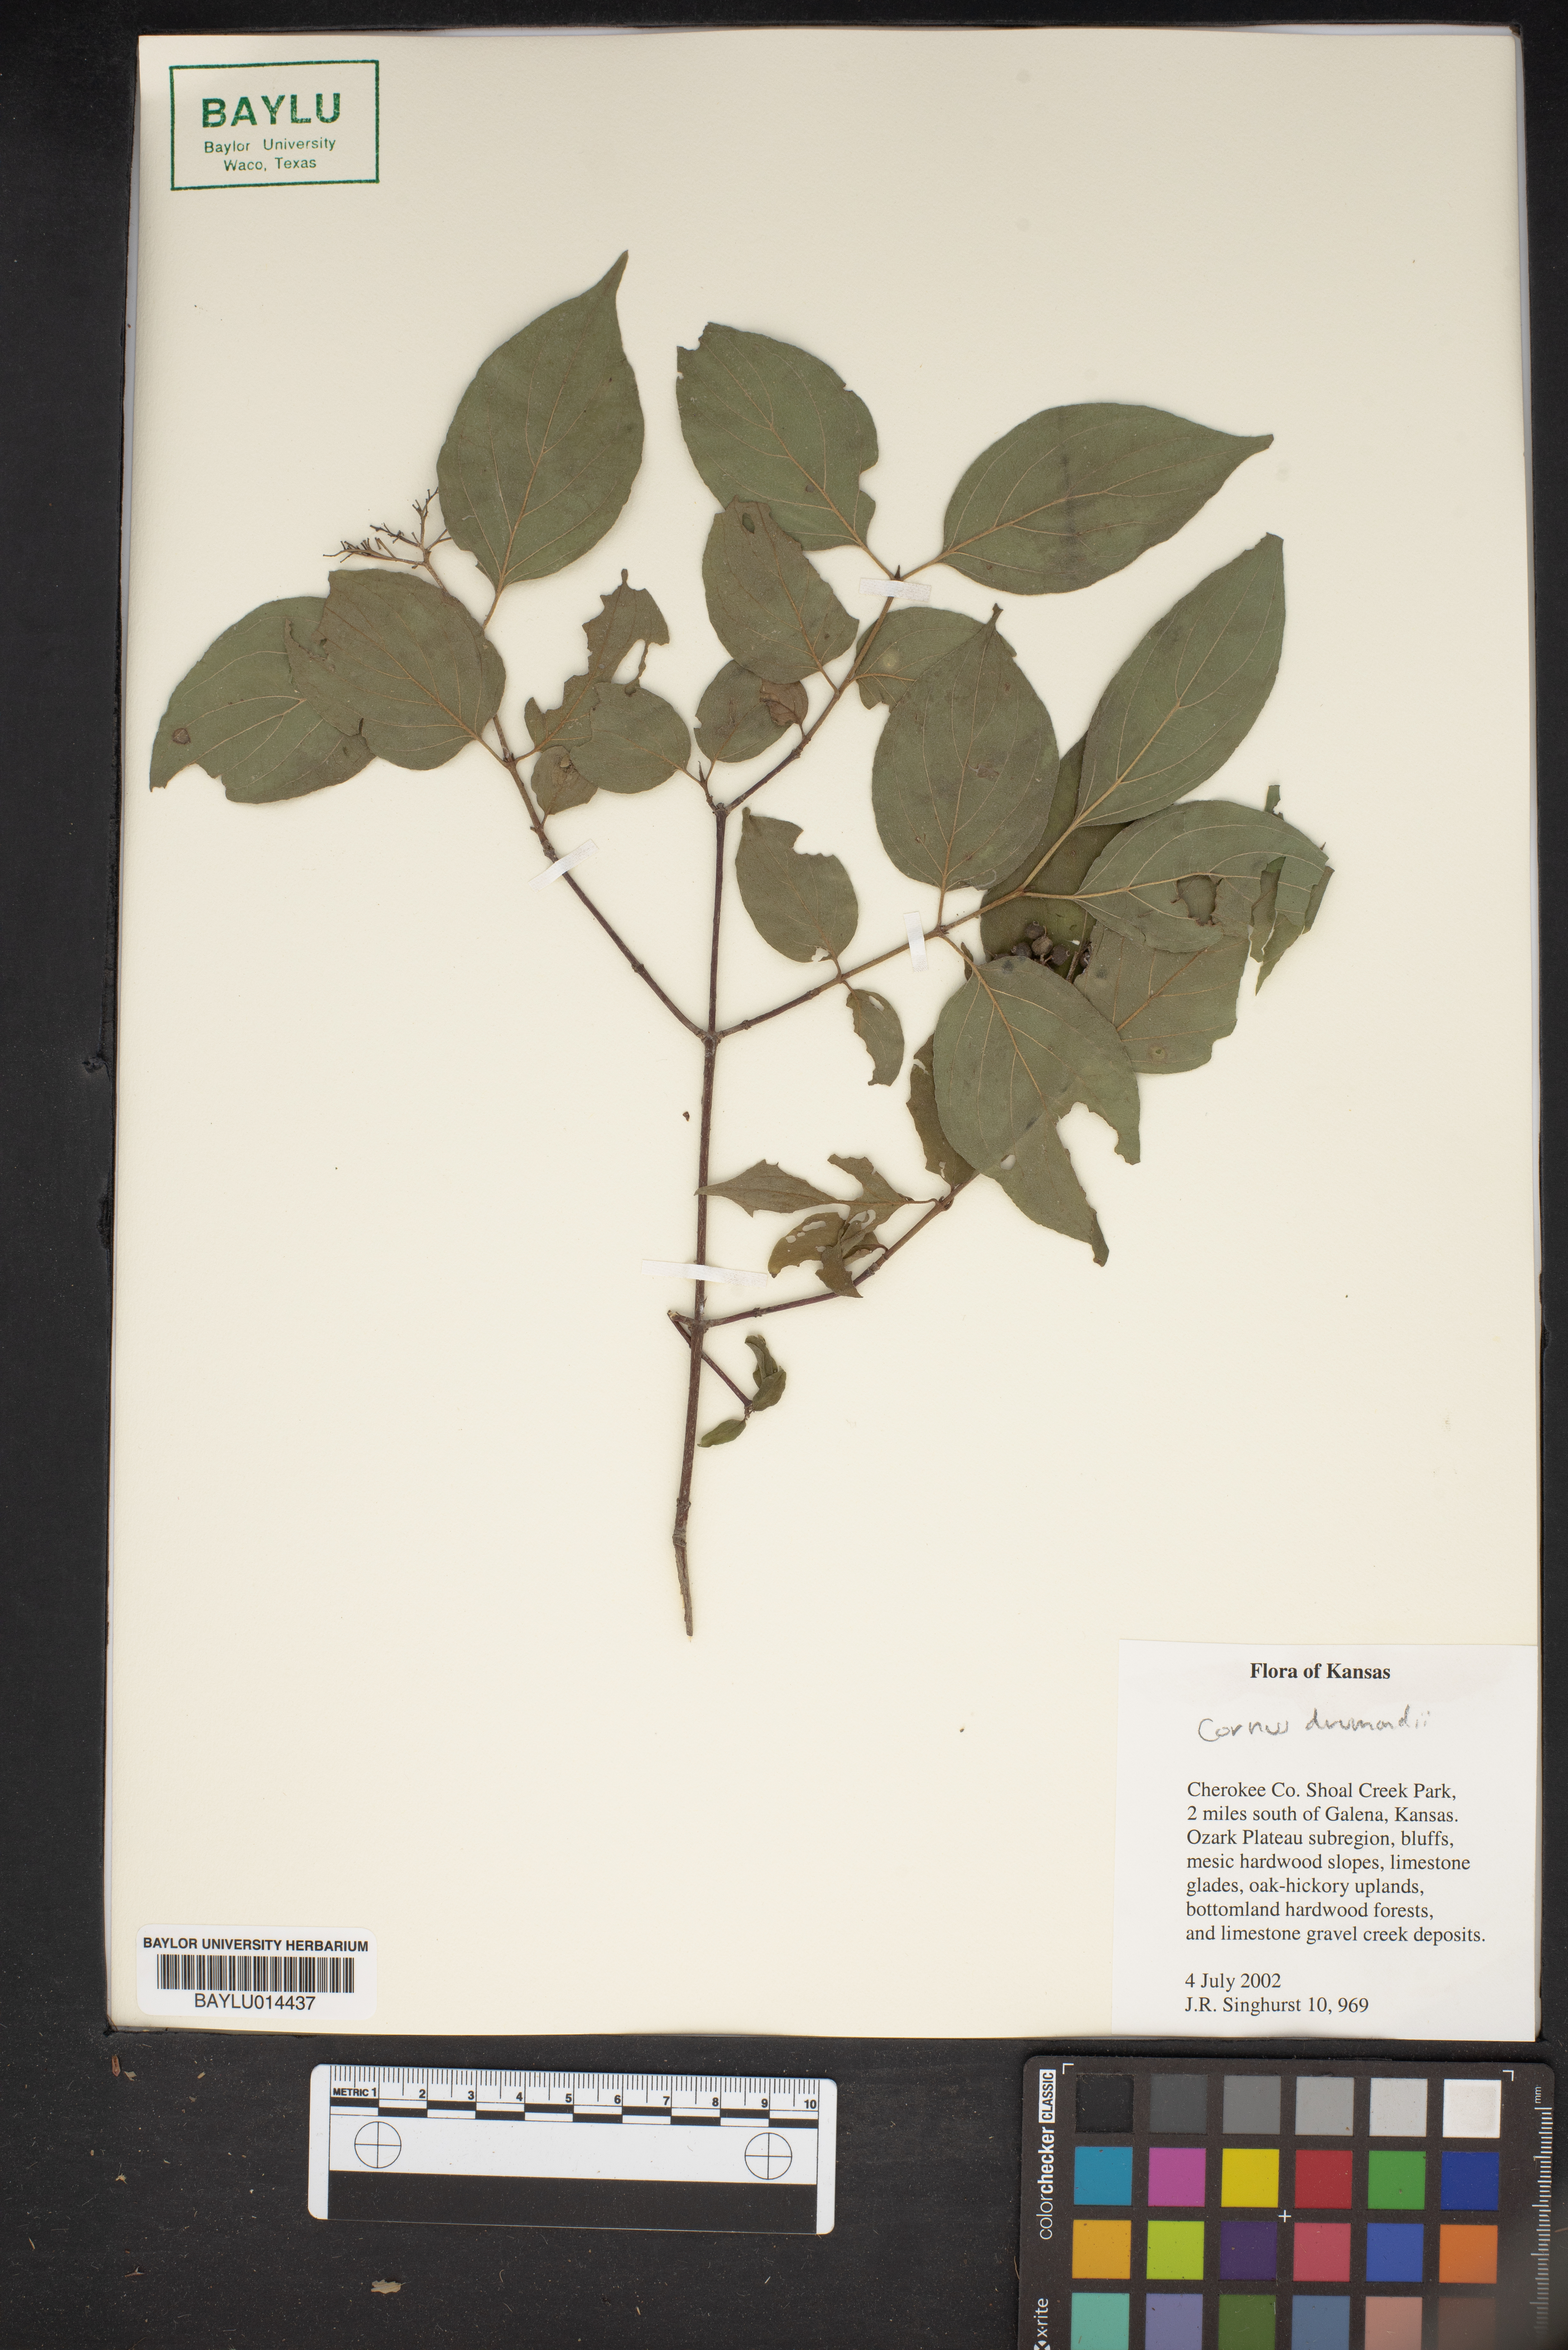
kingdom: Plantae
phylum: Tracheophyta
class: Magnoliopsida
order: Cornales
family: Cornaceae
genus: Cornus
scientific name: Cornus drummondii
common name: Rough-leaf dogwood
